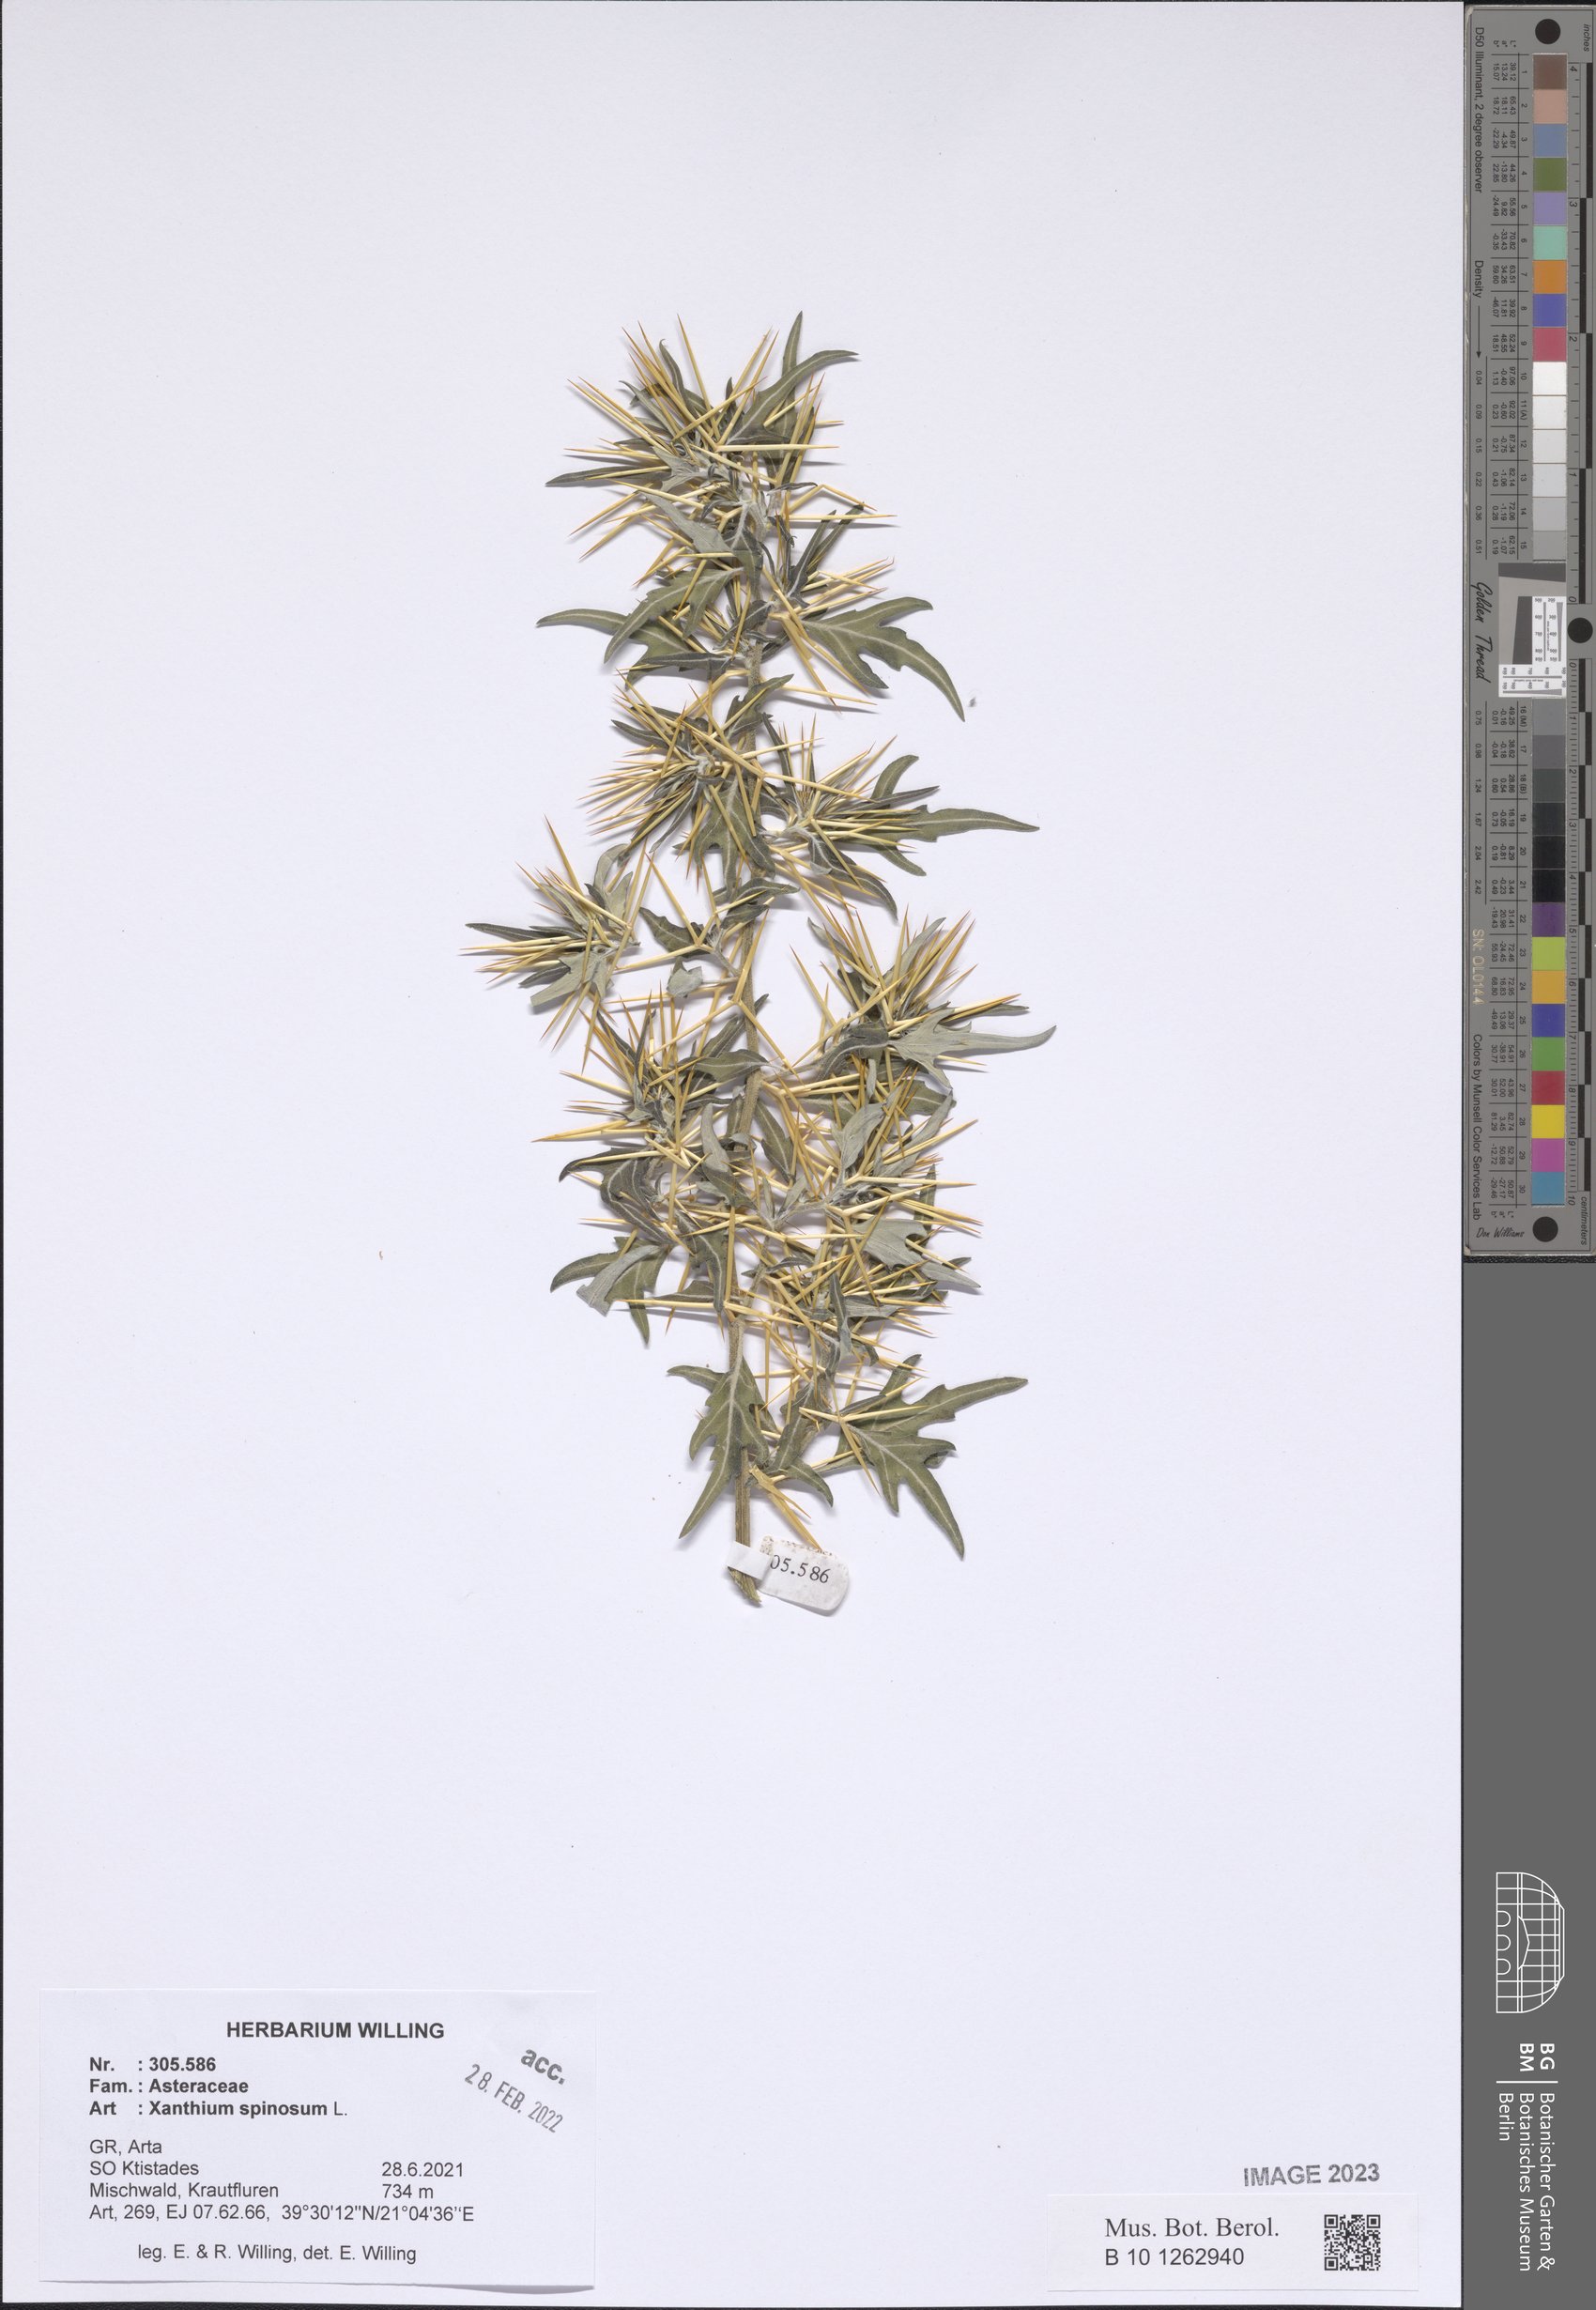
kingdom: Plantae
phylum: Tracheophyta
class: Magnoliopsida
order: Asterales
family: Asteraceae
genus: Xanthium
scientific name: Xanthium spinosum
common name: Spiny cocklebur
